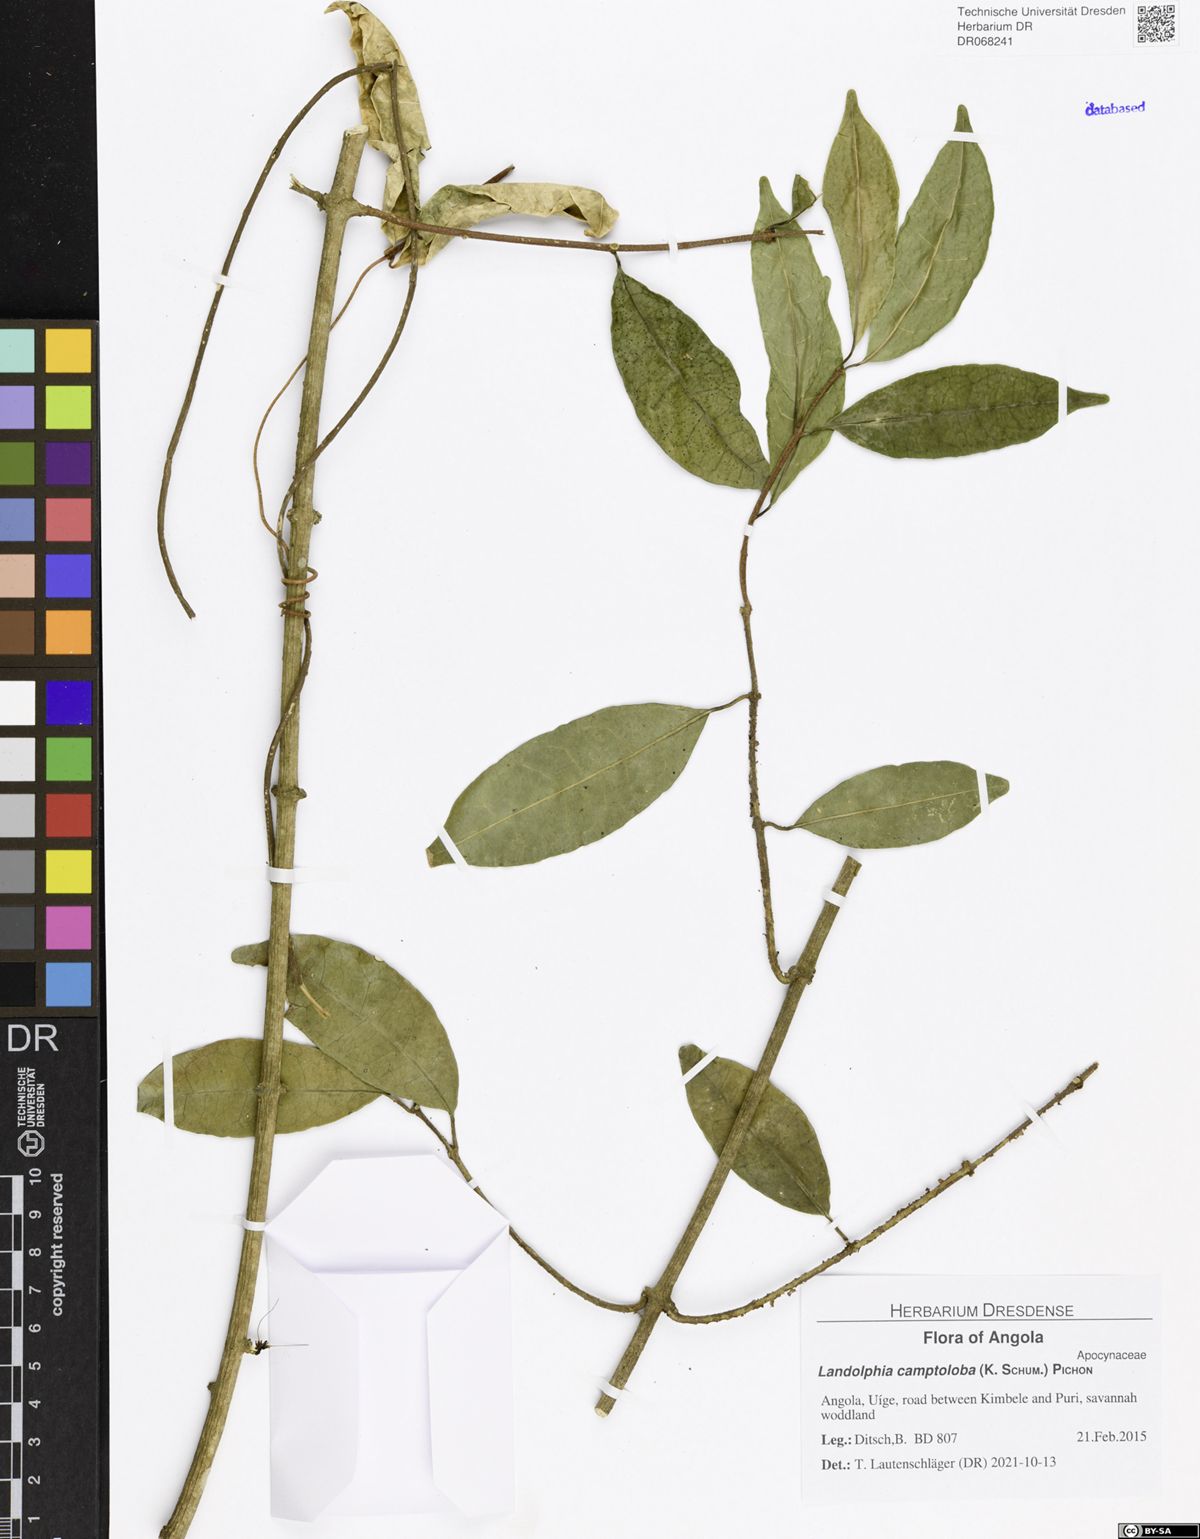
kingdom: Plantae
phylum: Tracheophyta
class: Magnoliopsida
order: Gentianales
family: Apocynaceae
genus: Landolphia
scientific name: Landolphia camptoloba
